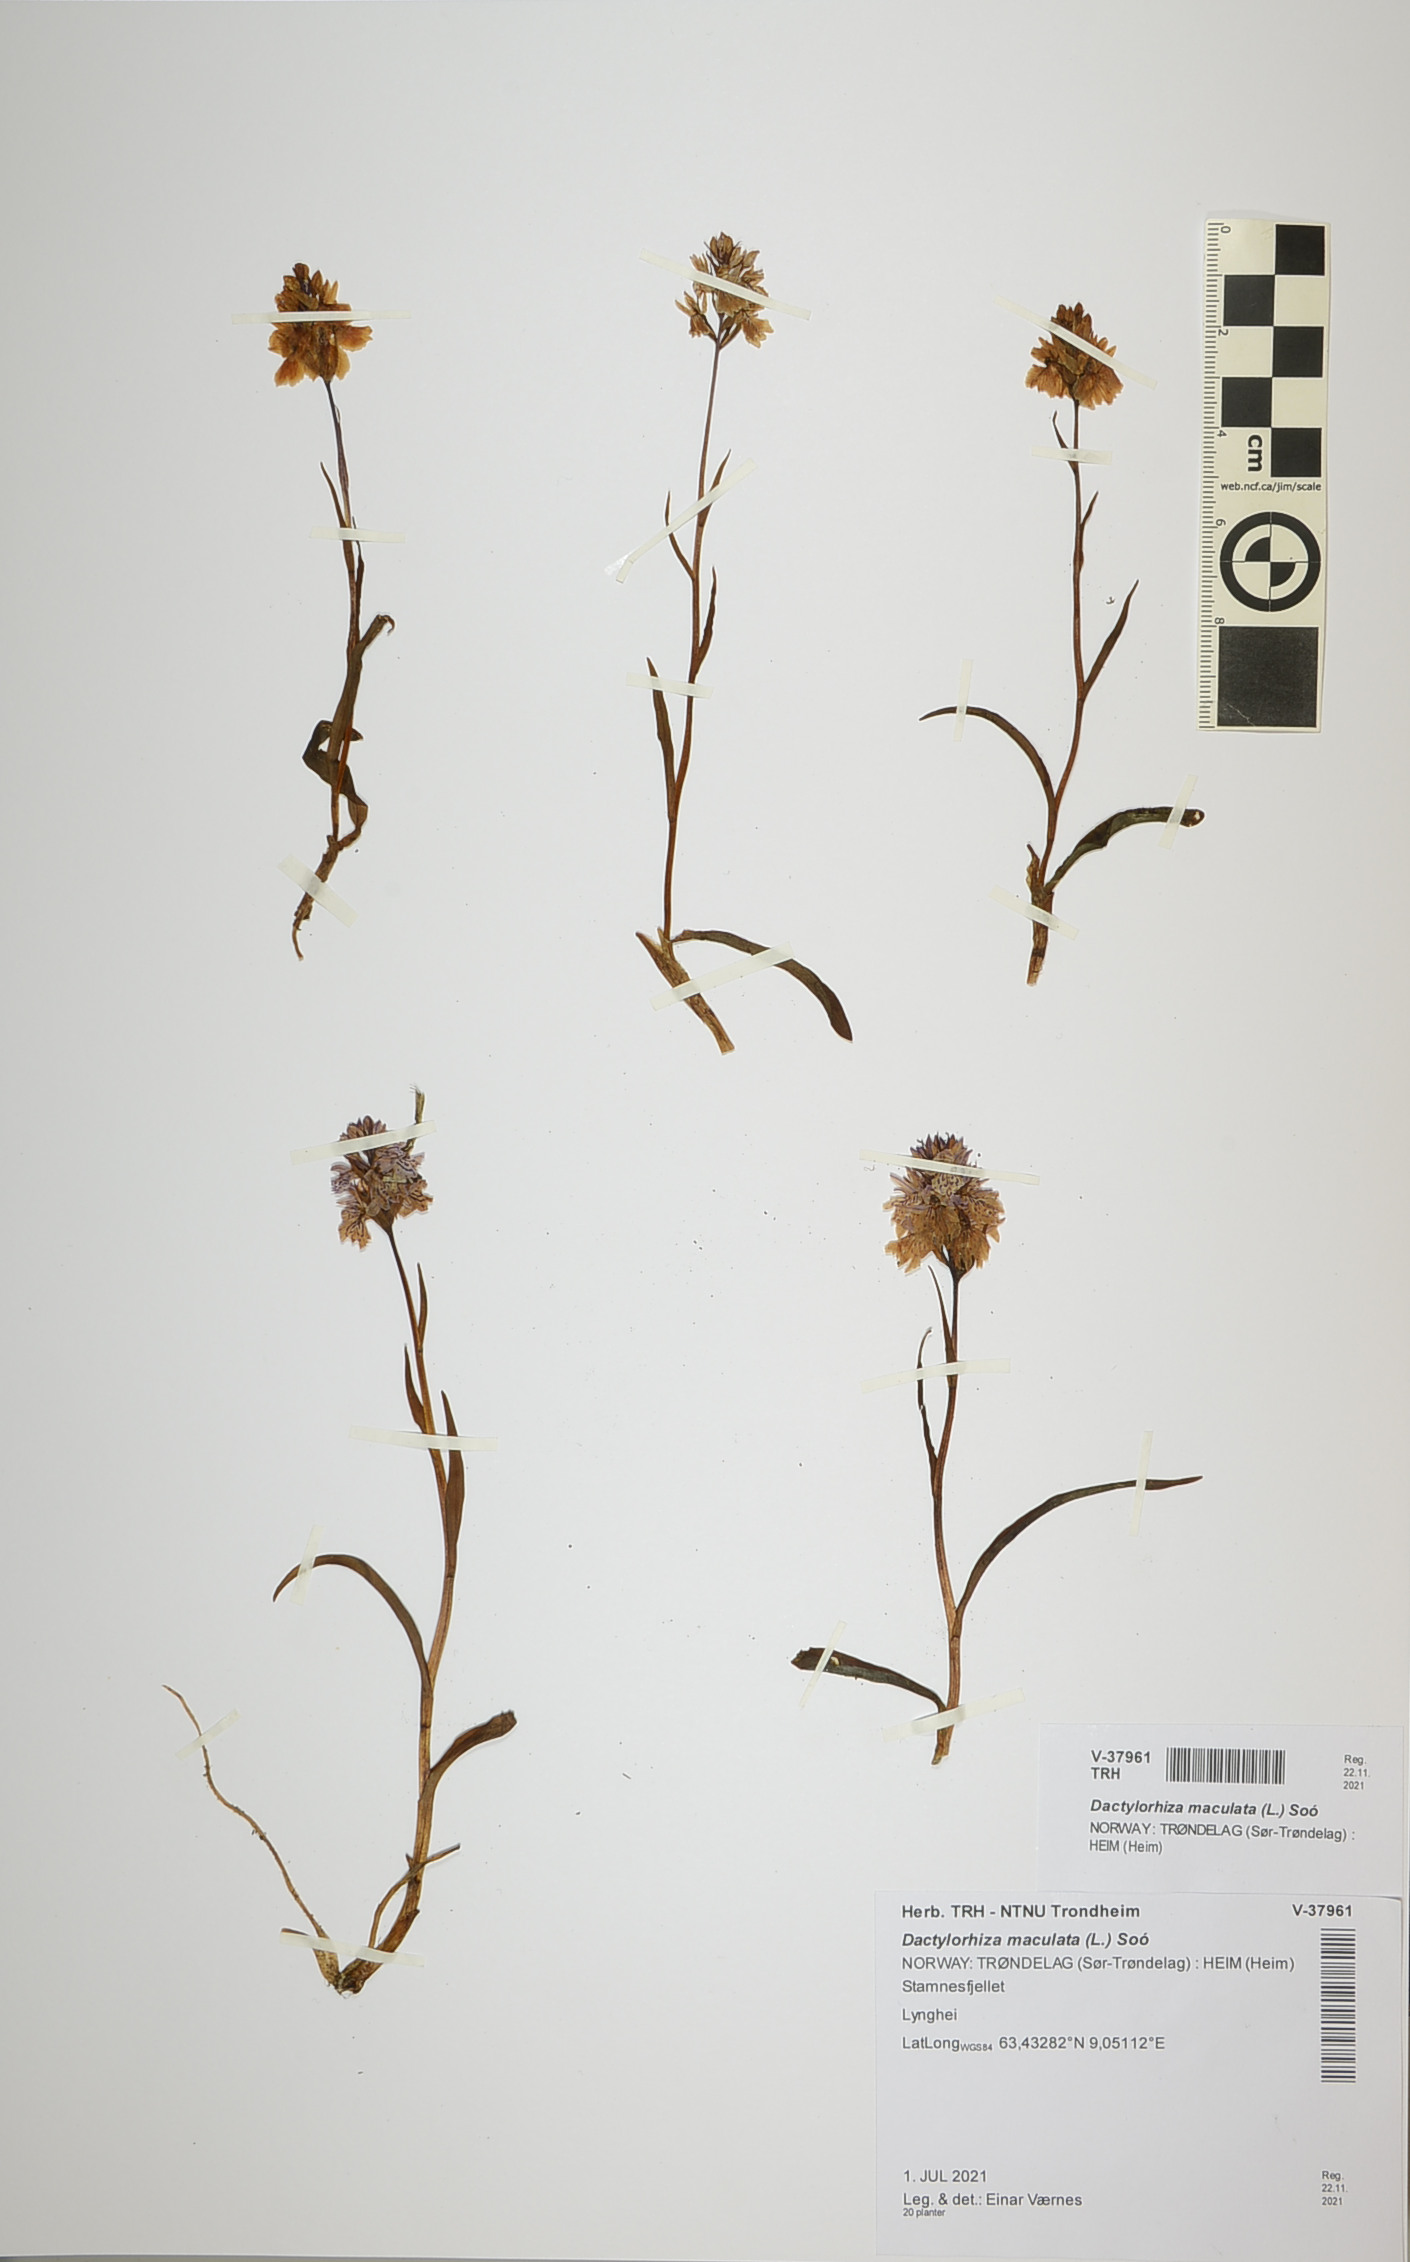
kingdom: Plantae
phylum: Tracheophyta
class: Liliopsida
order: Asparagales
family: Orchidaceae
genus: Dactylorhiza
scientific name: Dactylorhiza maculata
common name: Heath spotted-orchid
